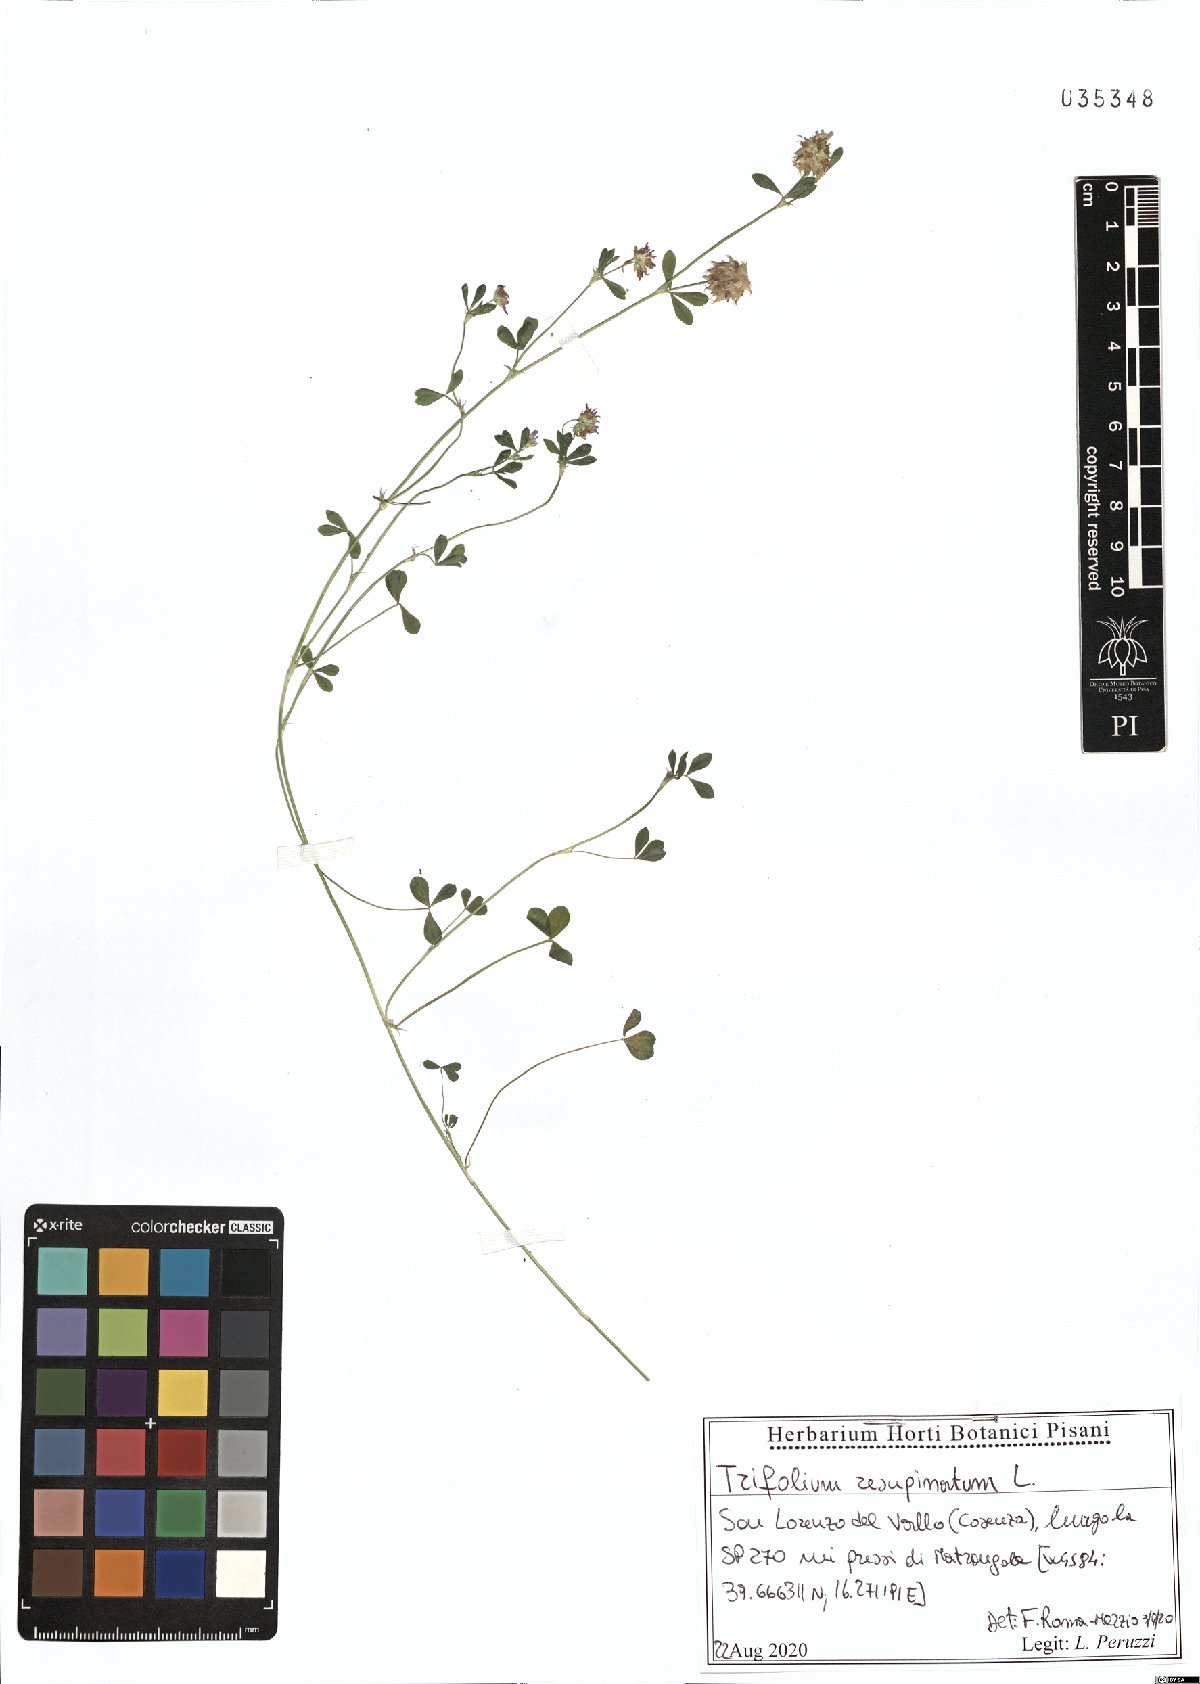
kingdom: Plantae
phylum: Tracheophyta
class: Magnoliopsida
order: Fabales
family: Fabaceae
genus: Trifolium
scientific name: Trifolium resupinatum
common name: Reversed clover
